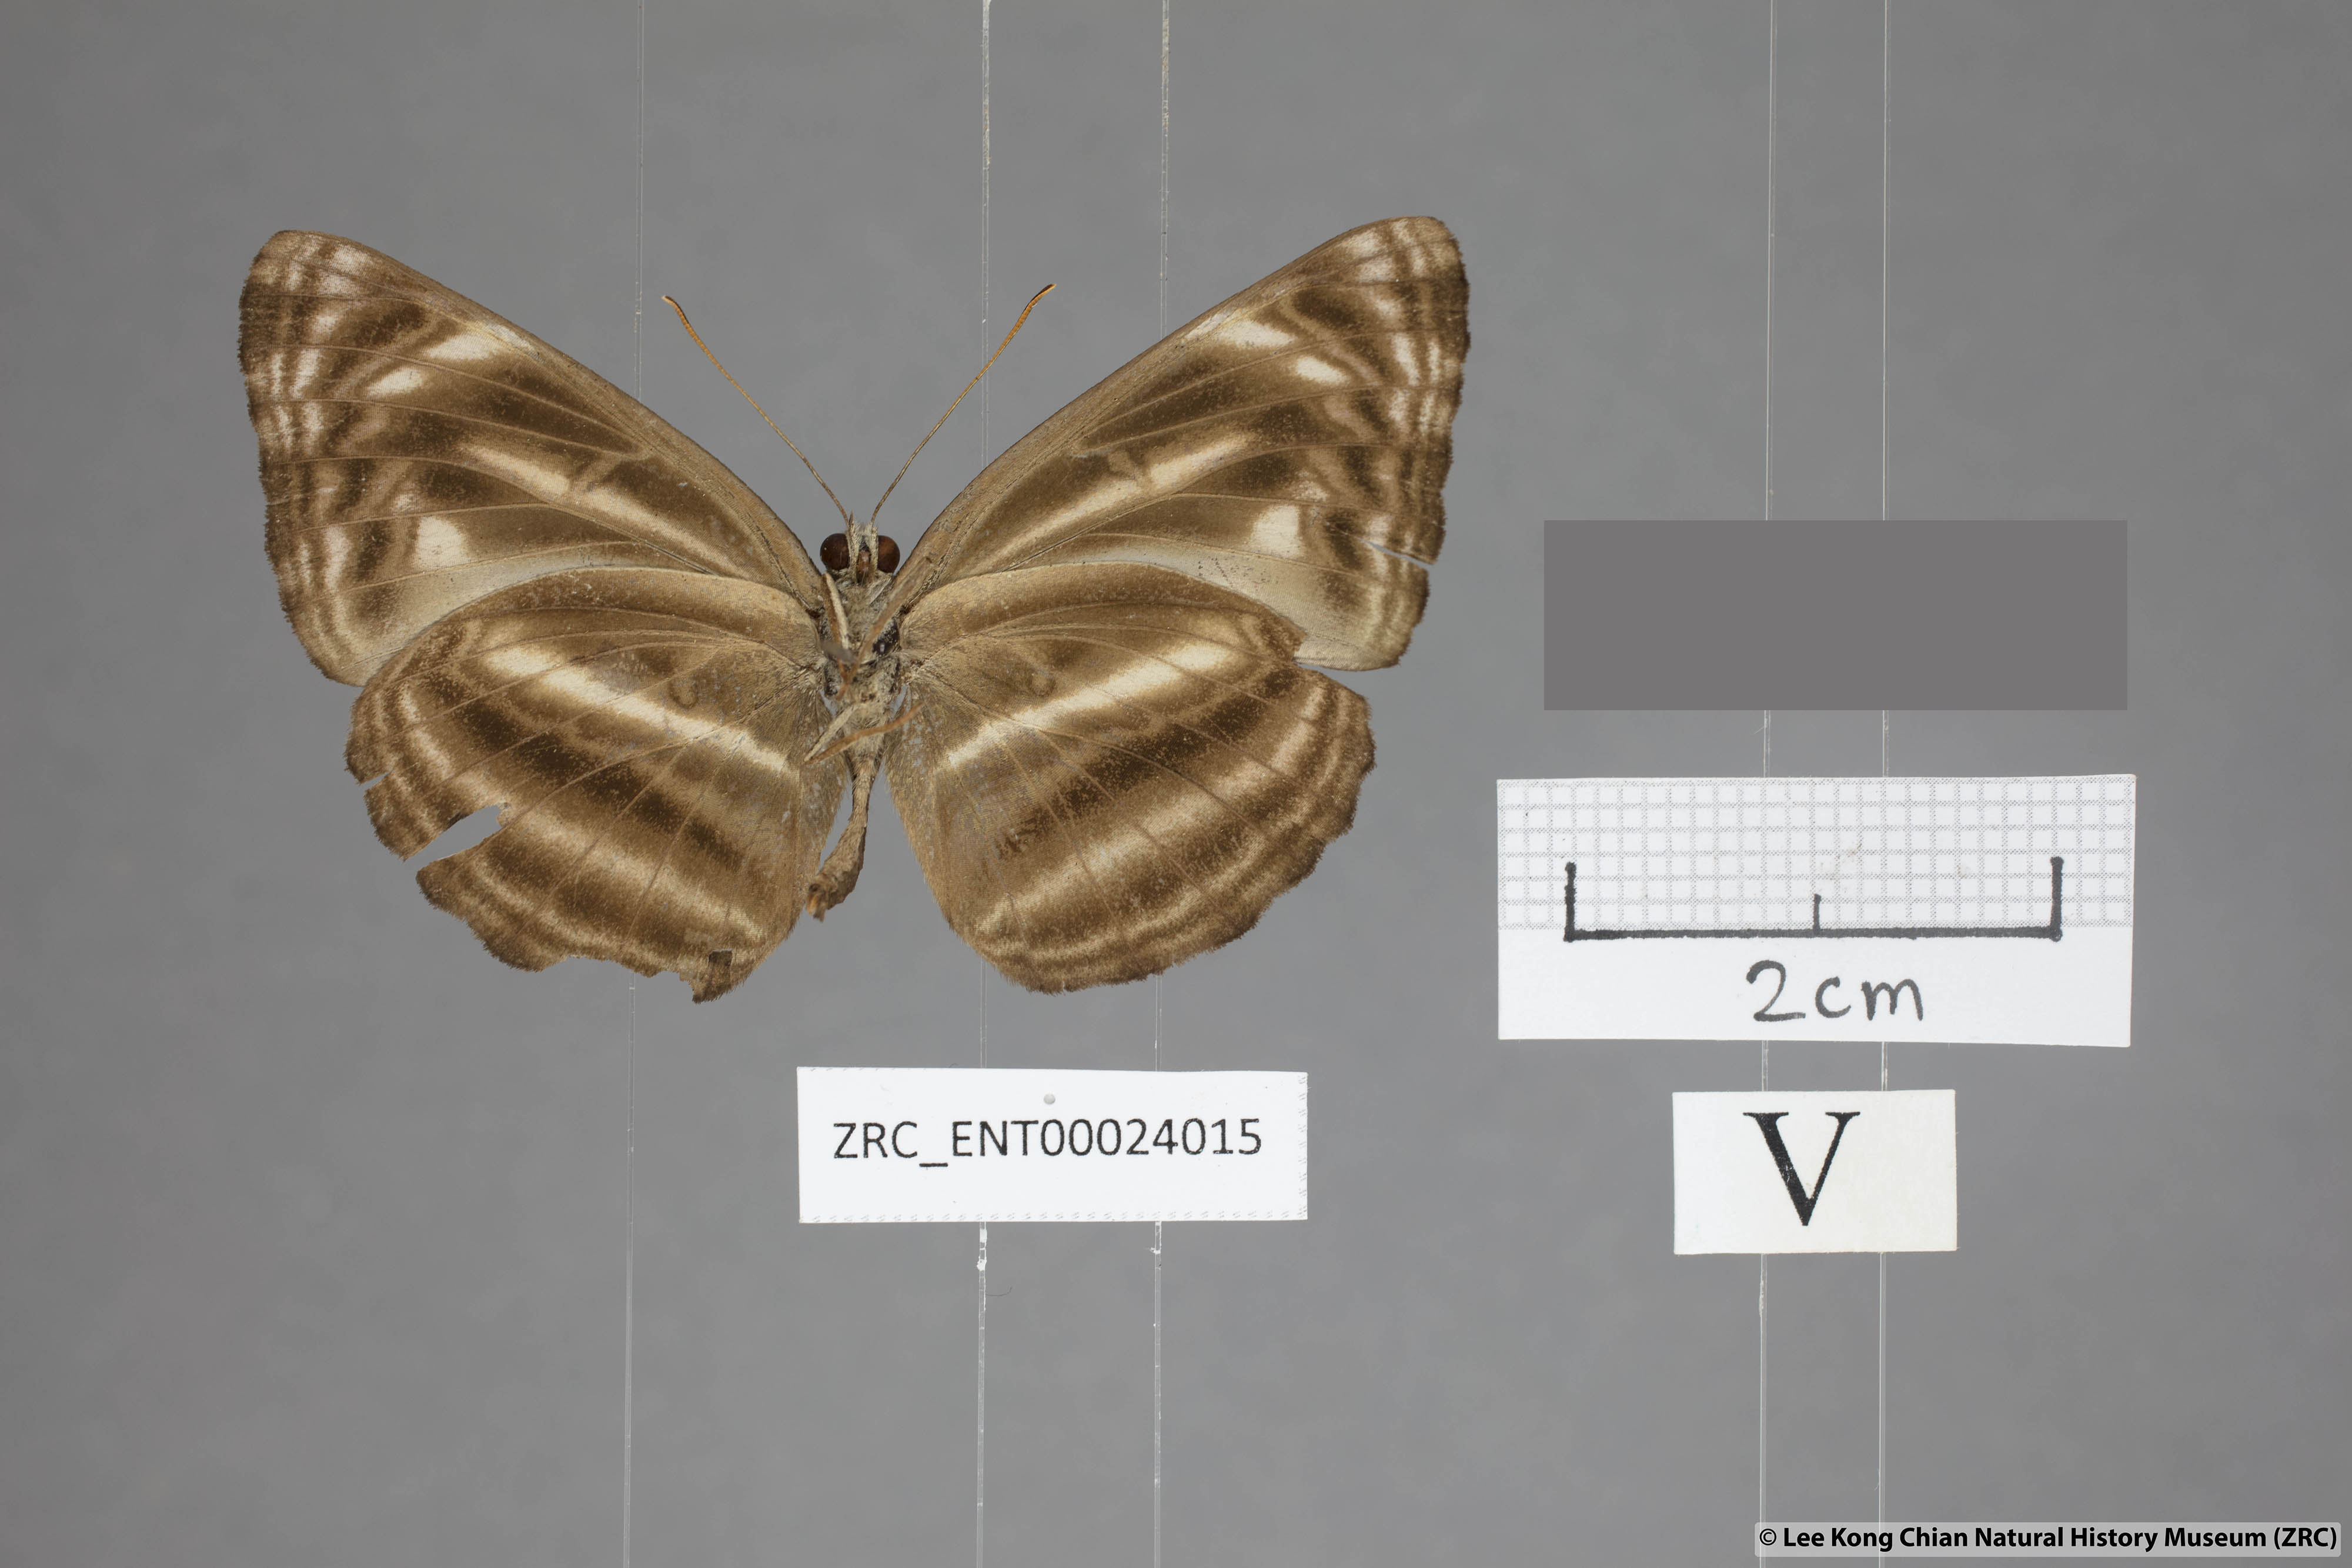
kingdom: Animalia
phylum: Arthropoda
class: Insecta
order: Lepidoptera
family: Nymphalidae
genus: Neptis
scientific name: Neptis ilira
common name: Dark dingy sailor
